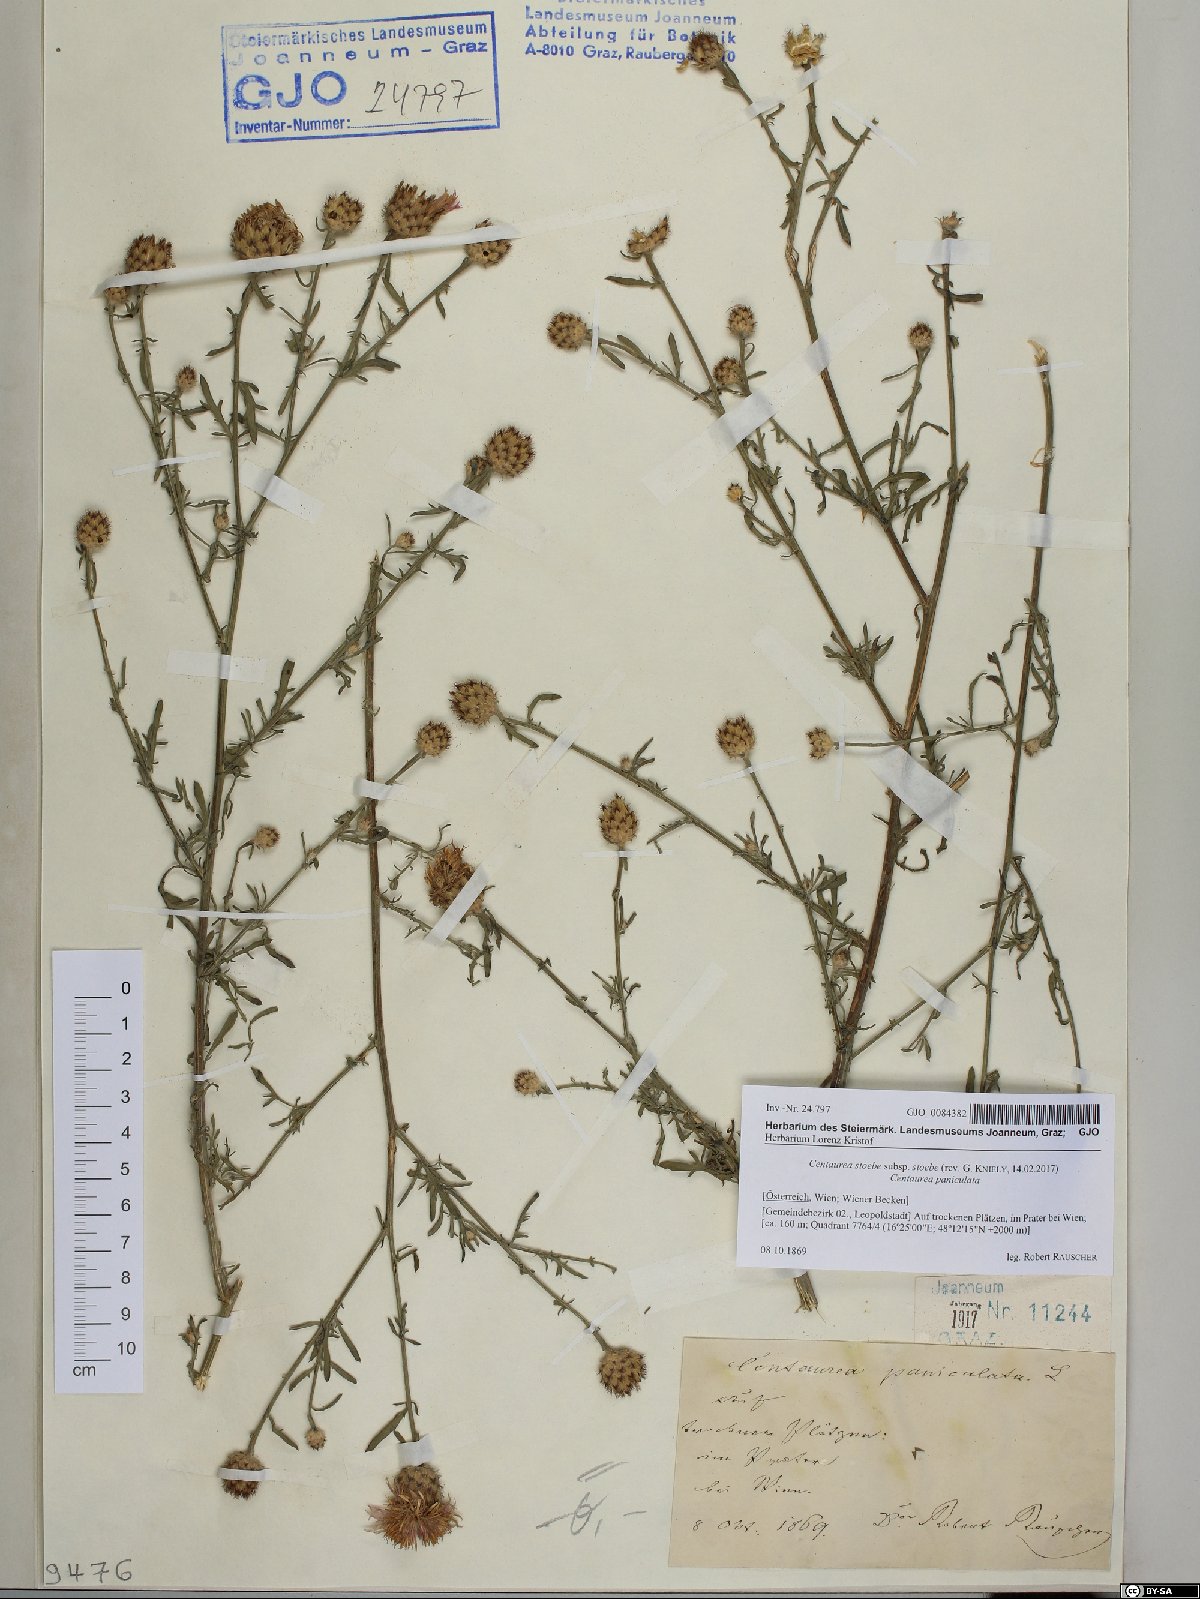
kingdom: Plantae
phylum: Tracheophyta
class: Magnoliopsida
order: Asterales
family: Asteraceae
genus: Centaurea
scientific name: Centaurea stoebe
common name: Spotted knapweed
